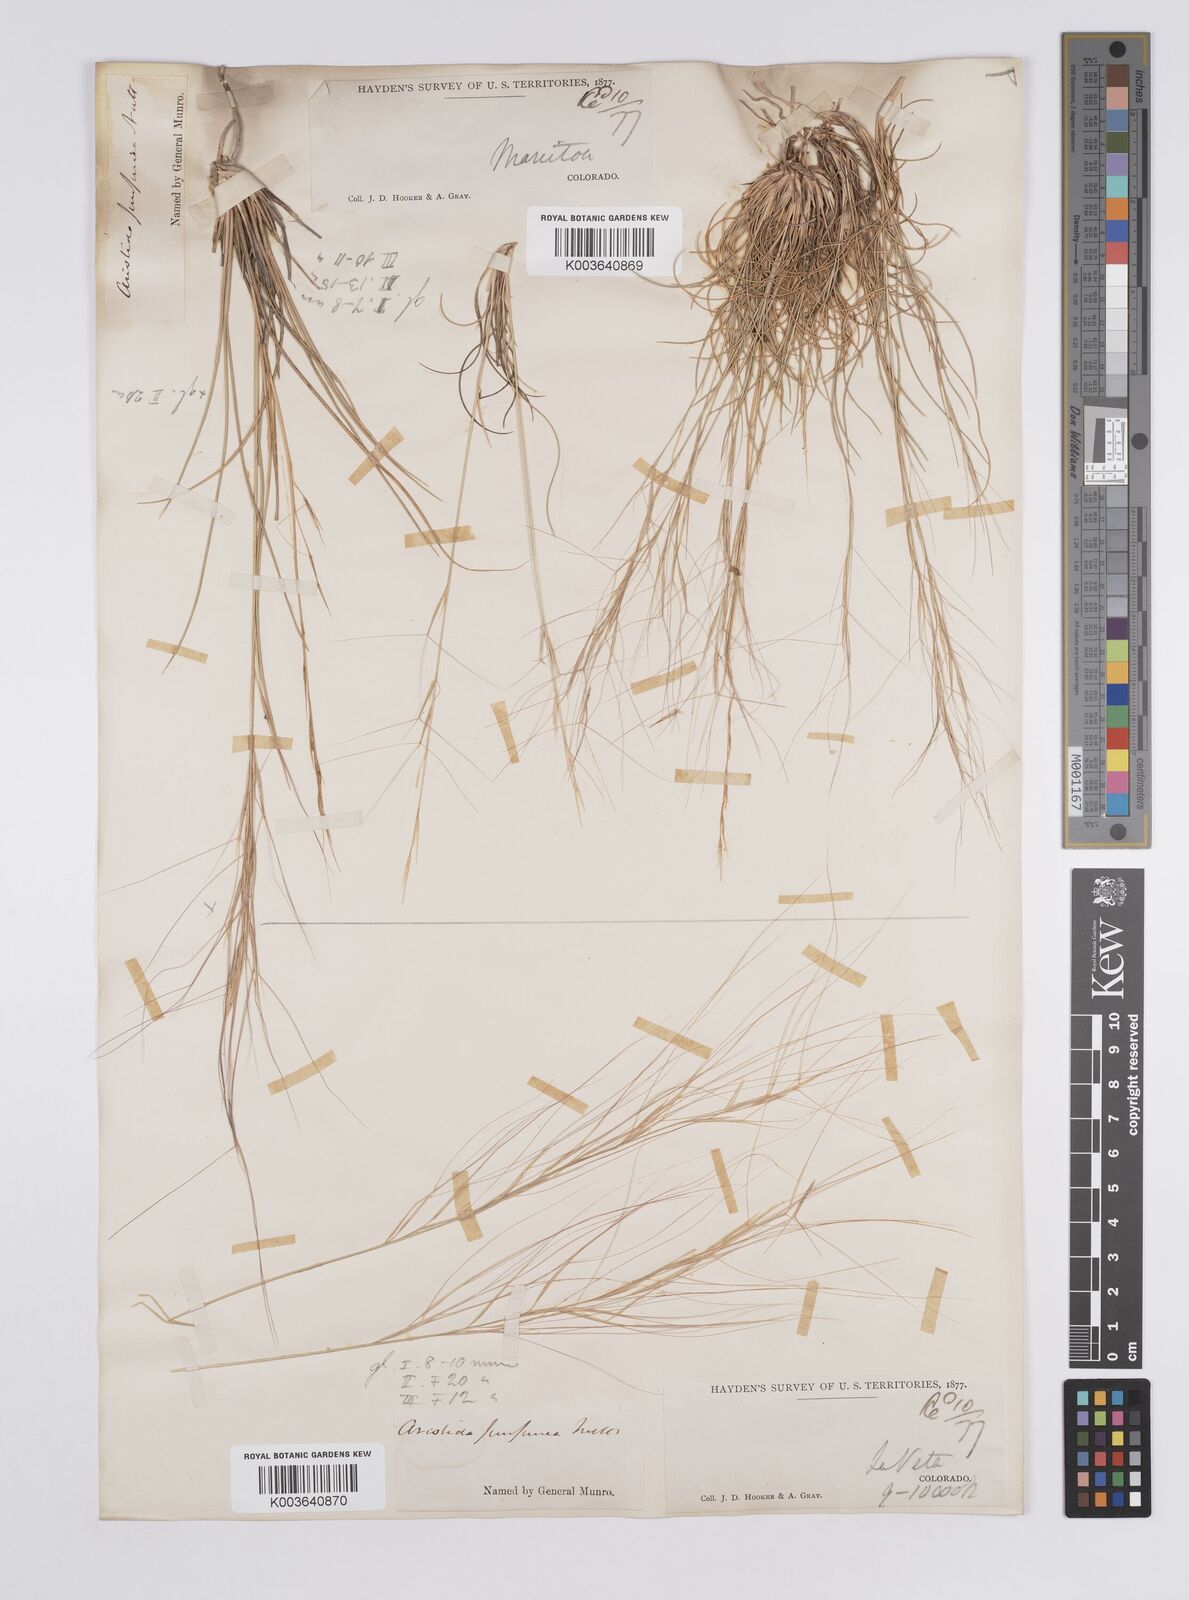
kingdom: Plantae
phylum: Tracheophyta
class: Liliopsida
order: Poales
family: Poaceae
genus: Aristida
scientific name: Aristida purpurea
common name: Purple threeawn
